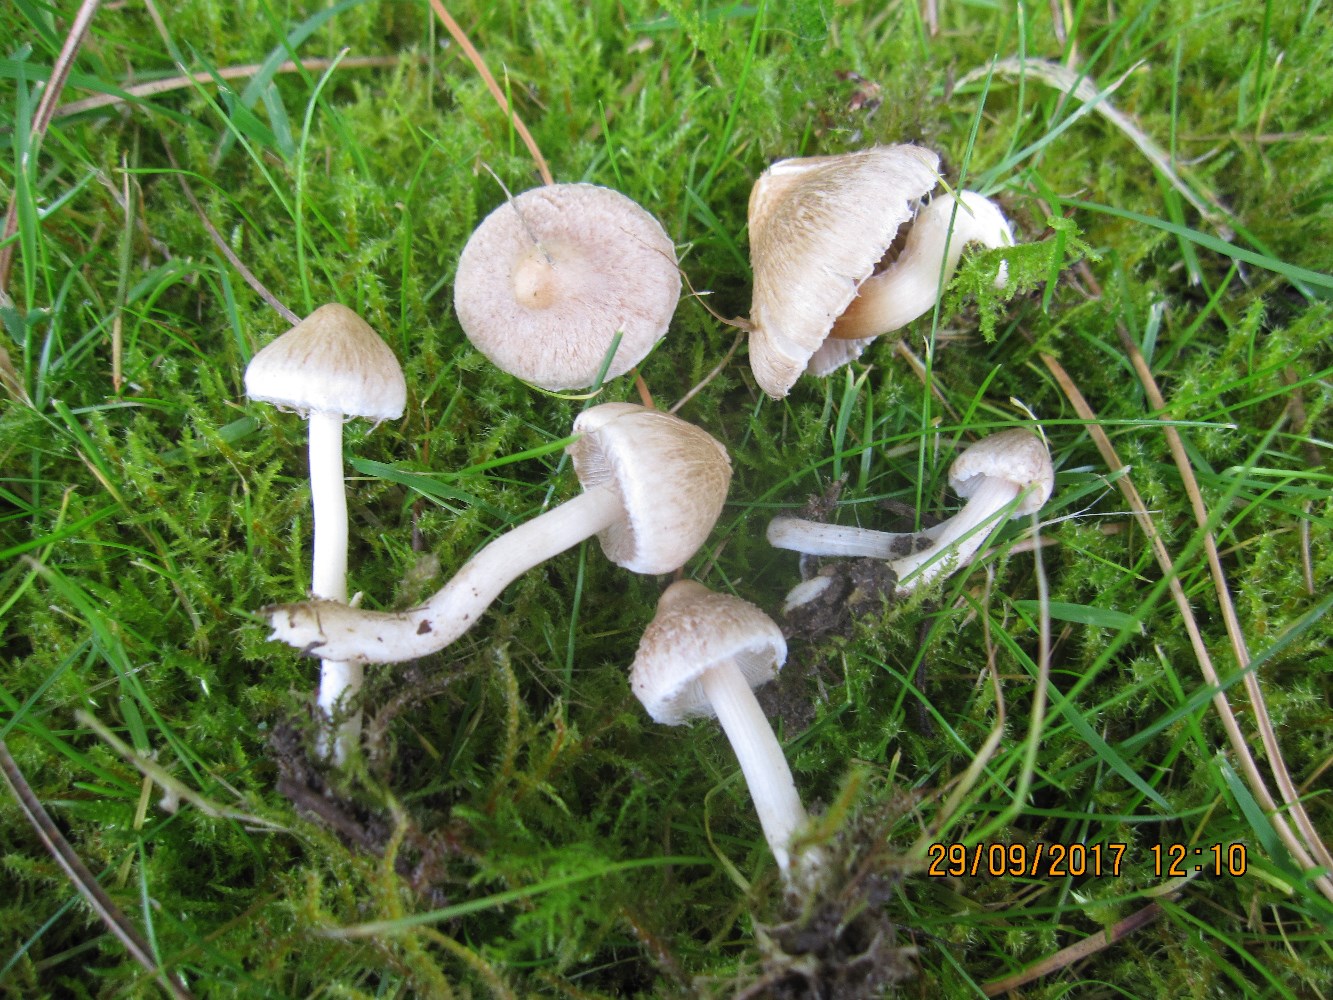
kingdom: Fungi
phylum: Basidiomycota
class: Agaricomycetes
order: Agaricales
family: Inocybaceae
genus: Inocybe
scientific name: Inocybe sindonia
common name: bleg trævlhat
